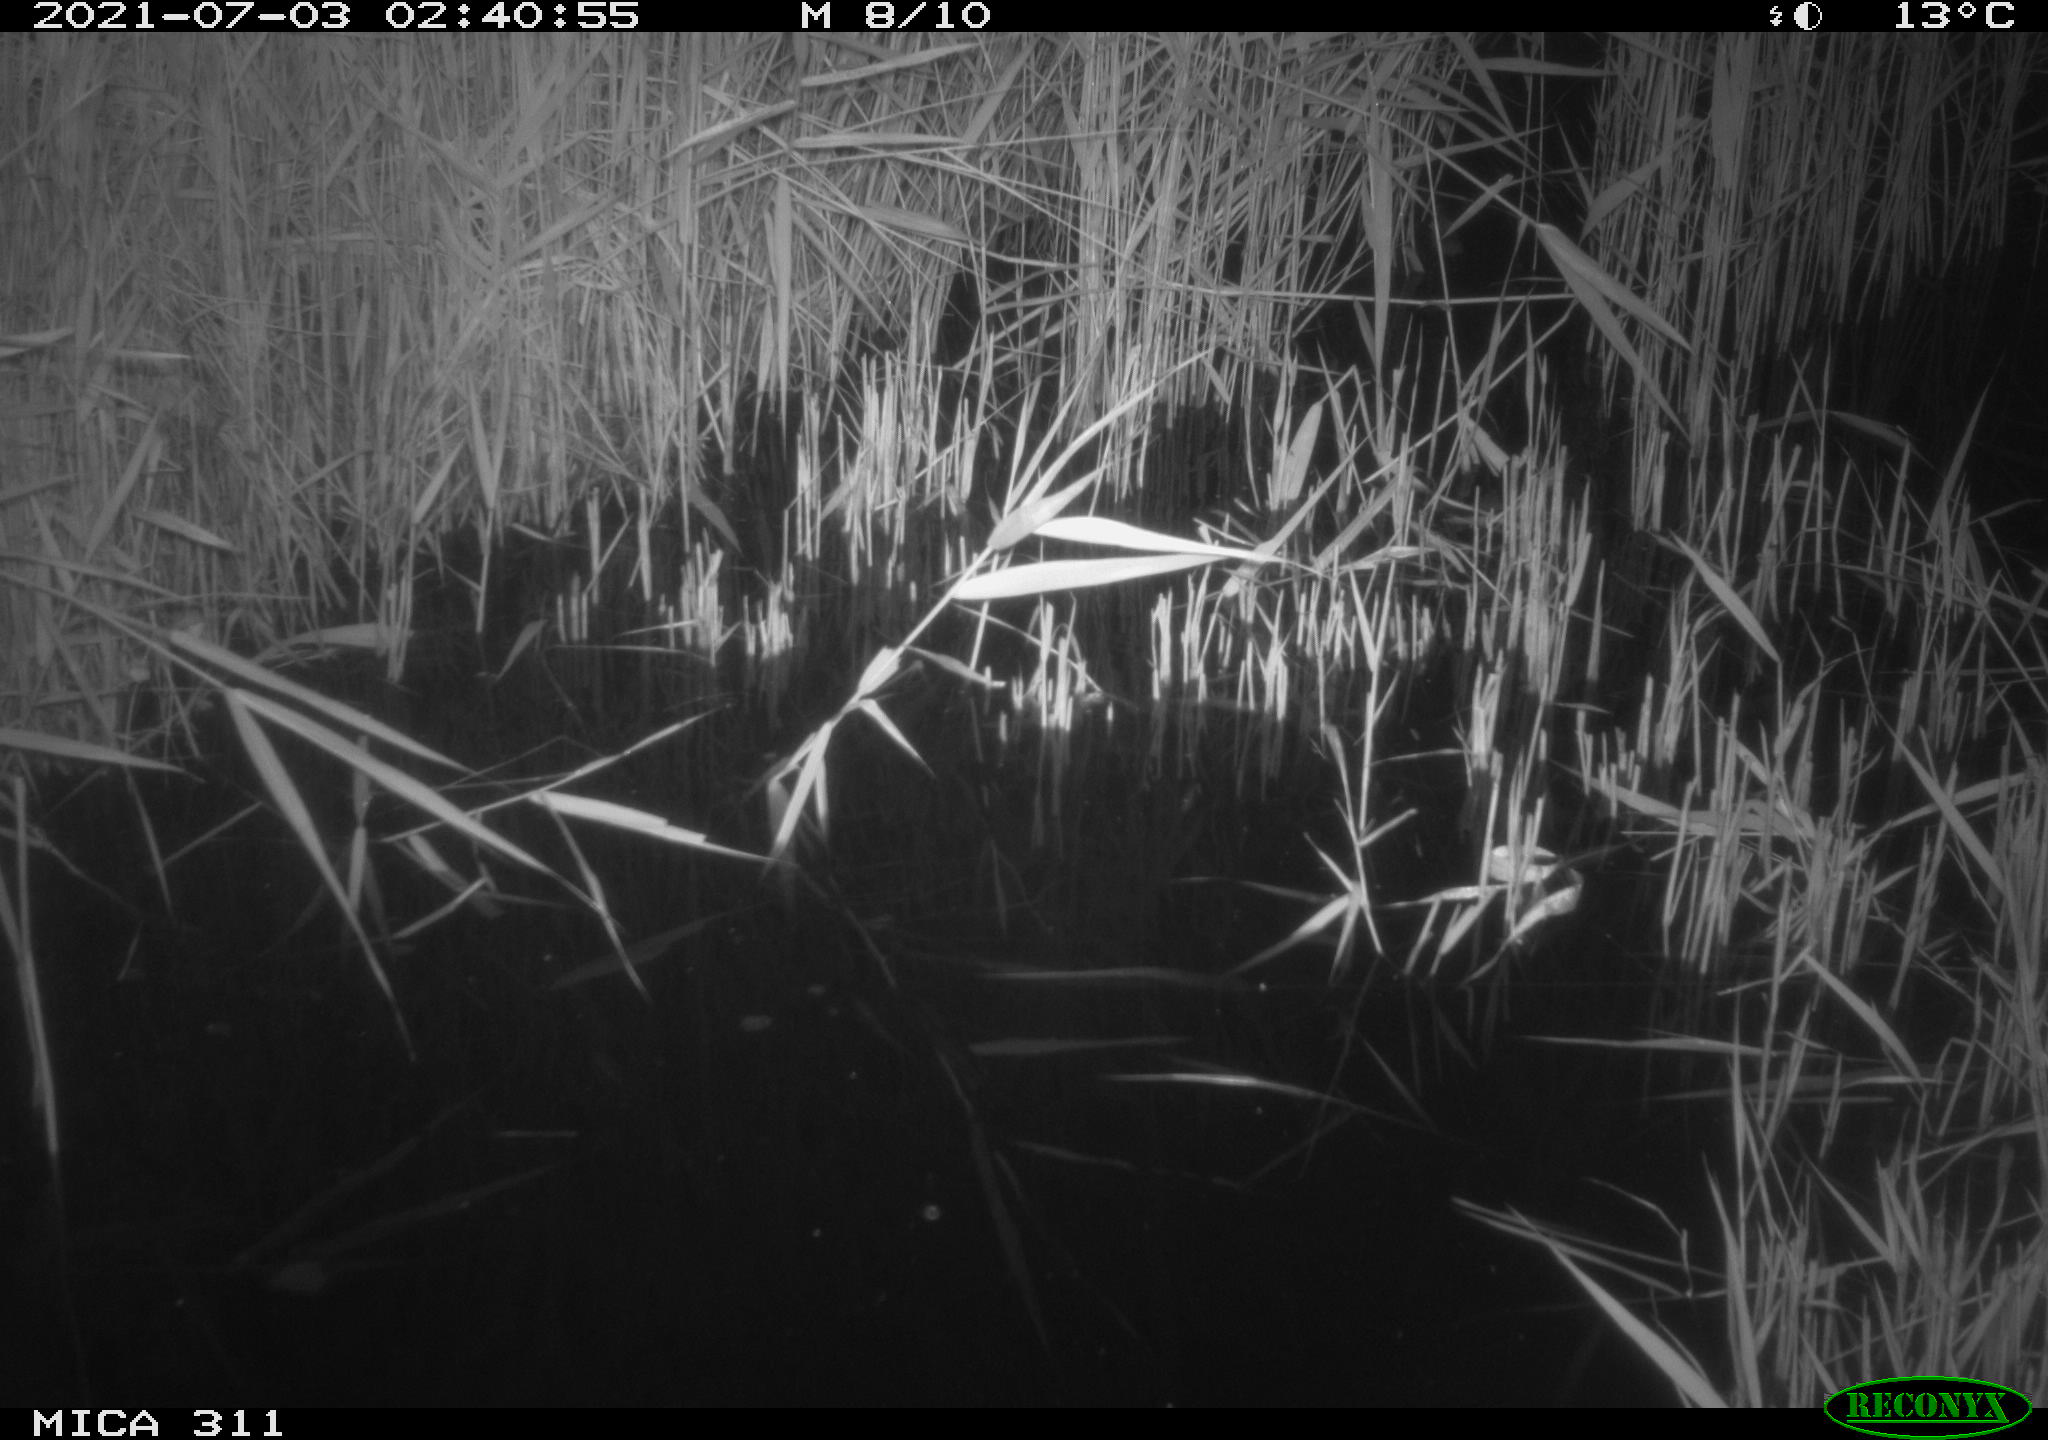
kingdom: Animalia
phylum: Chordata
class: Mammalia
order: Rodentia
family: Muridae
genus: Rattus
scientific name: Rattus norvegicus
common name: Brown rat
